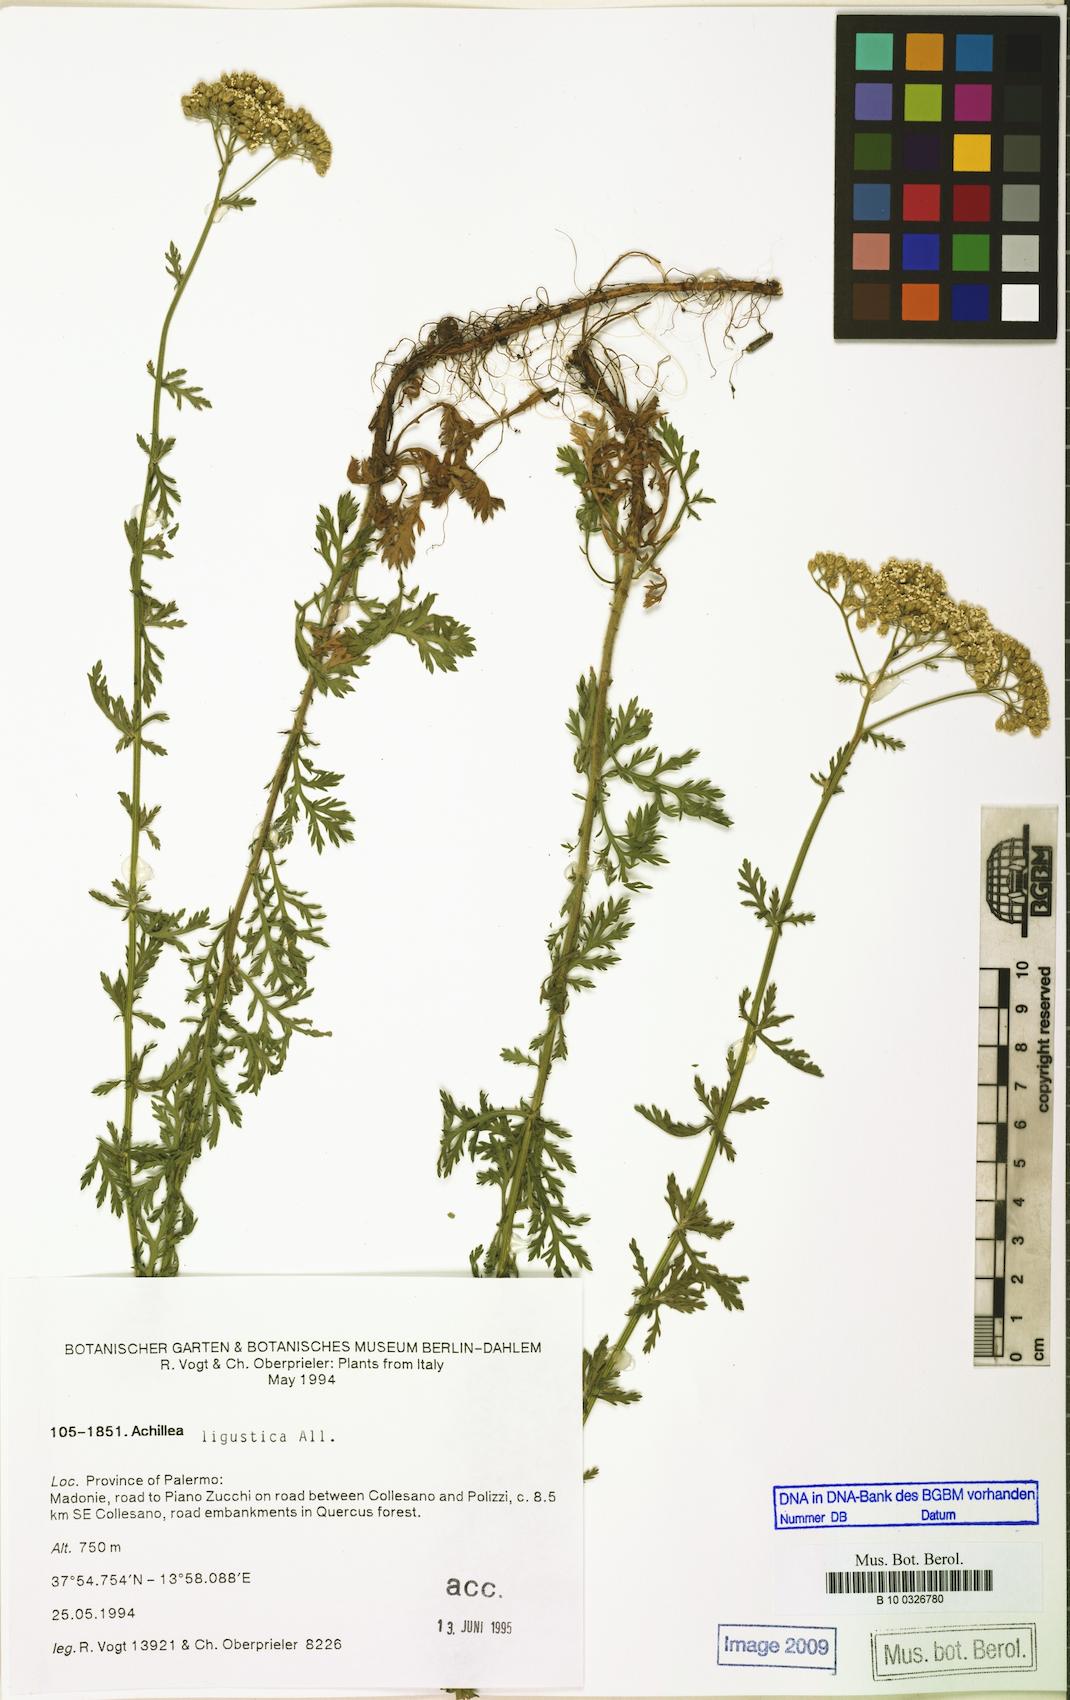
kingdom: Plantae
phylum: Tracheophyta
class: Magnoliopsida
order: Asterales
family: Asteraceae
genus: Achillea
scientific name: Achillea ligustica
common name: Southern yarrow
